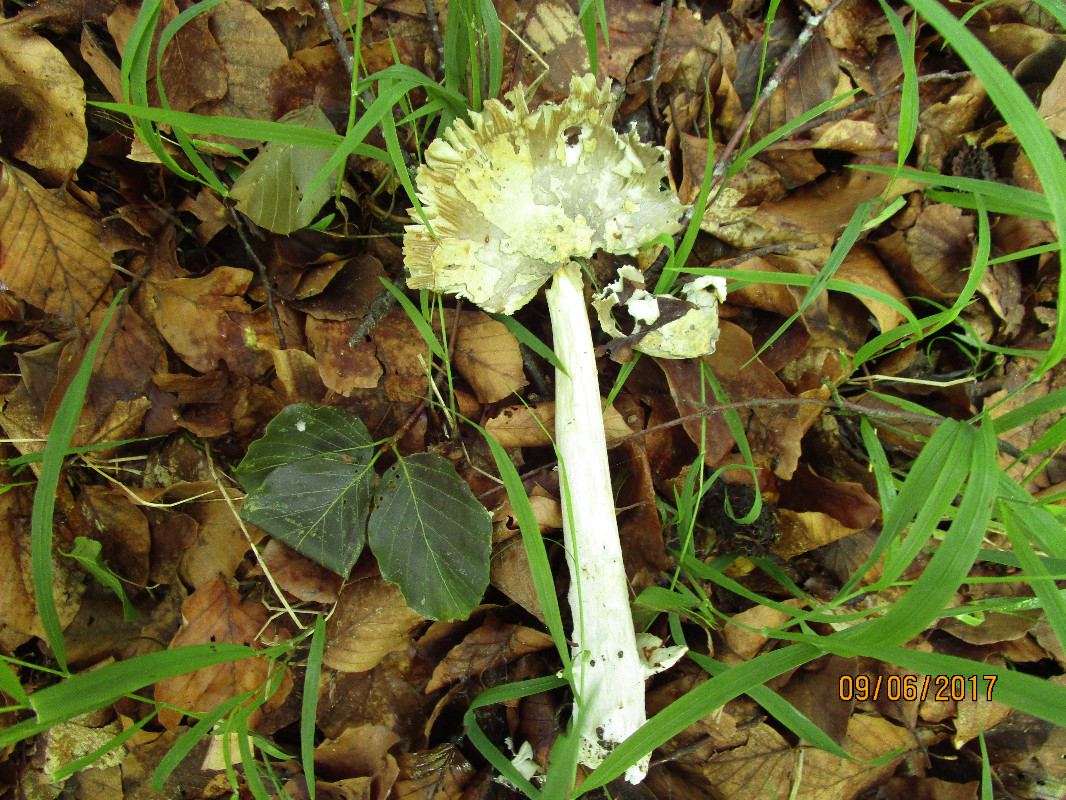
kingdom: Fungi
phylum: Basidiomycota
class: Agaricomycetes
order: Agaricales
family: Amanitaceae
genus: Amanita
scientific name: Amanita
